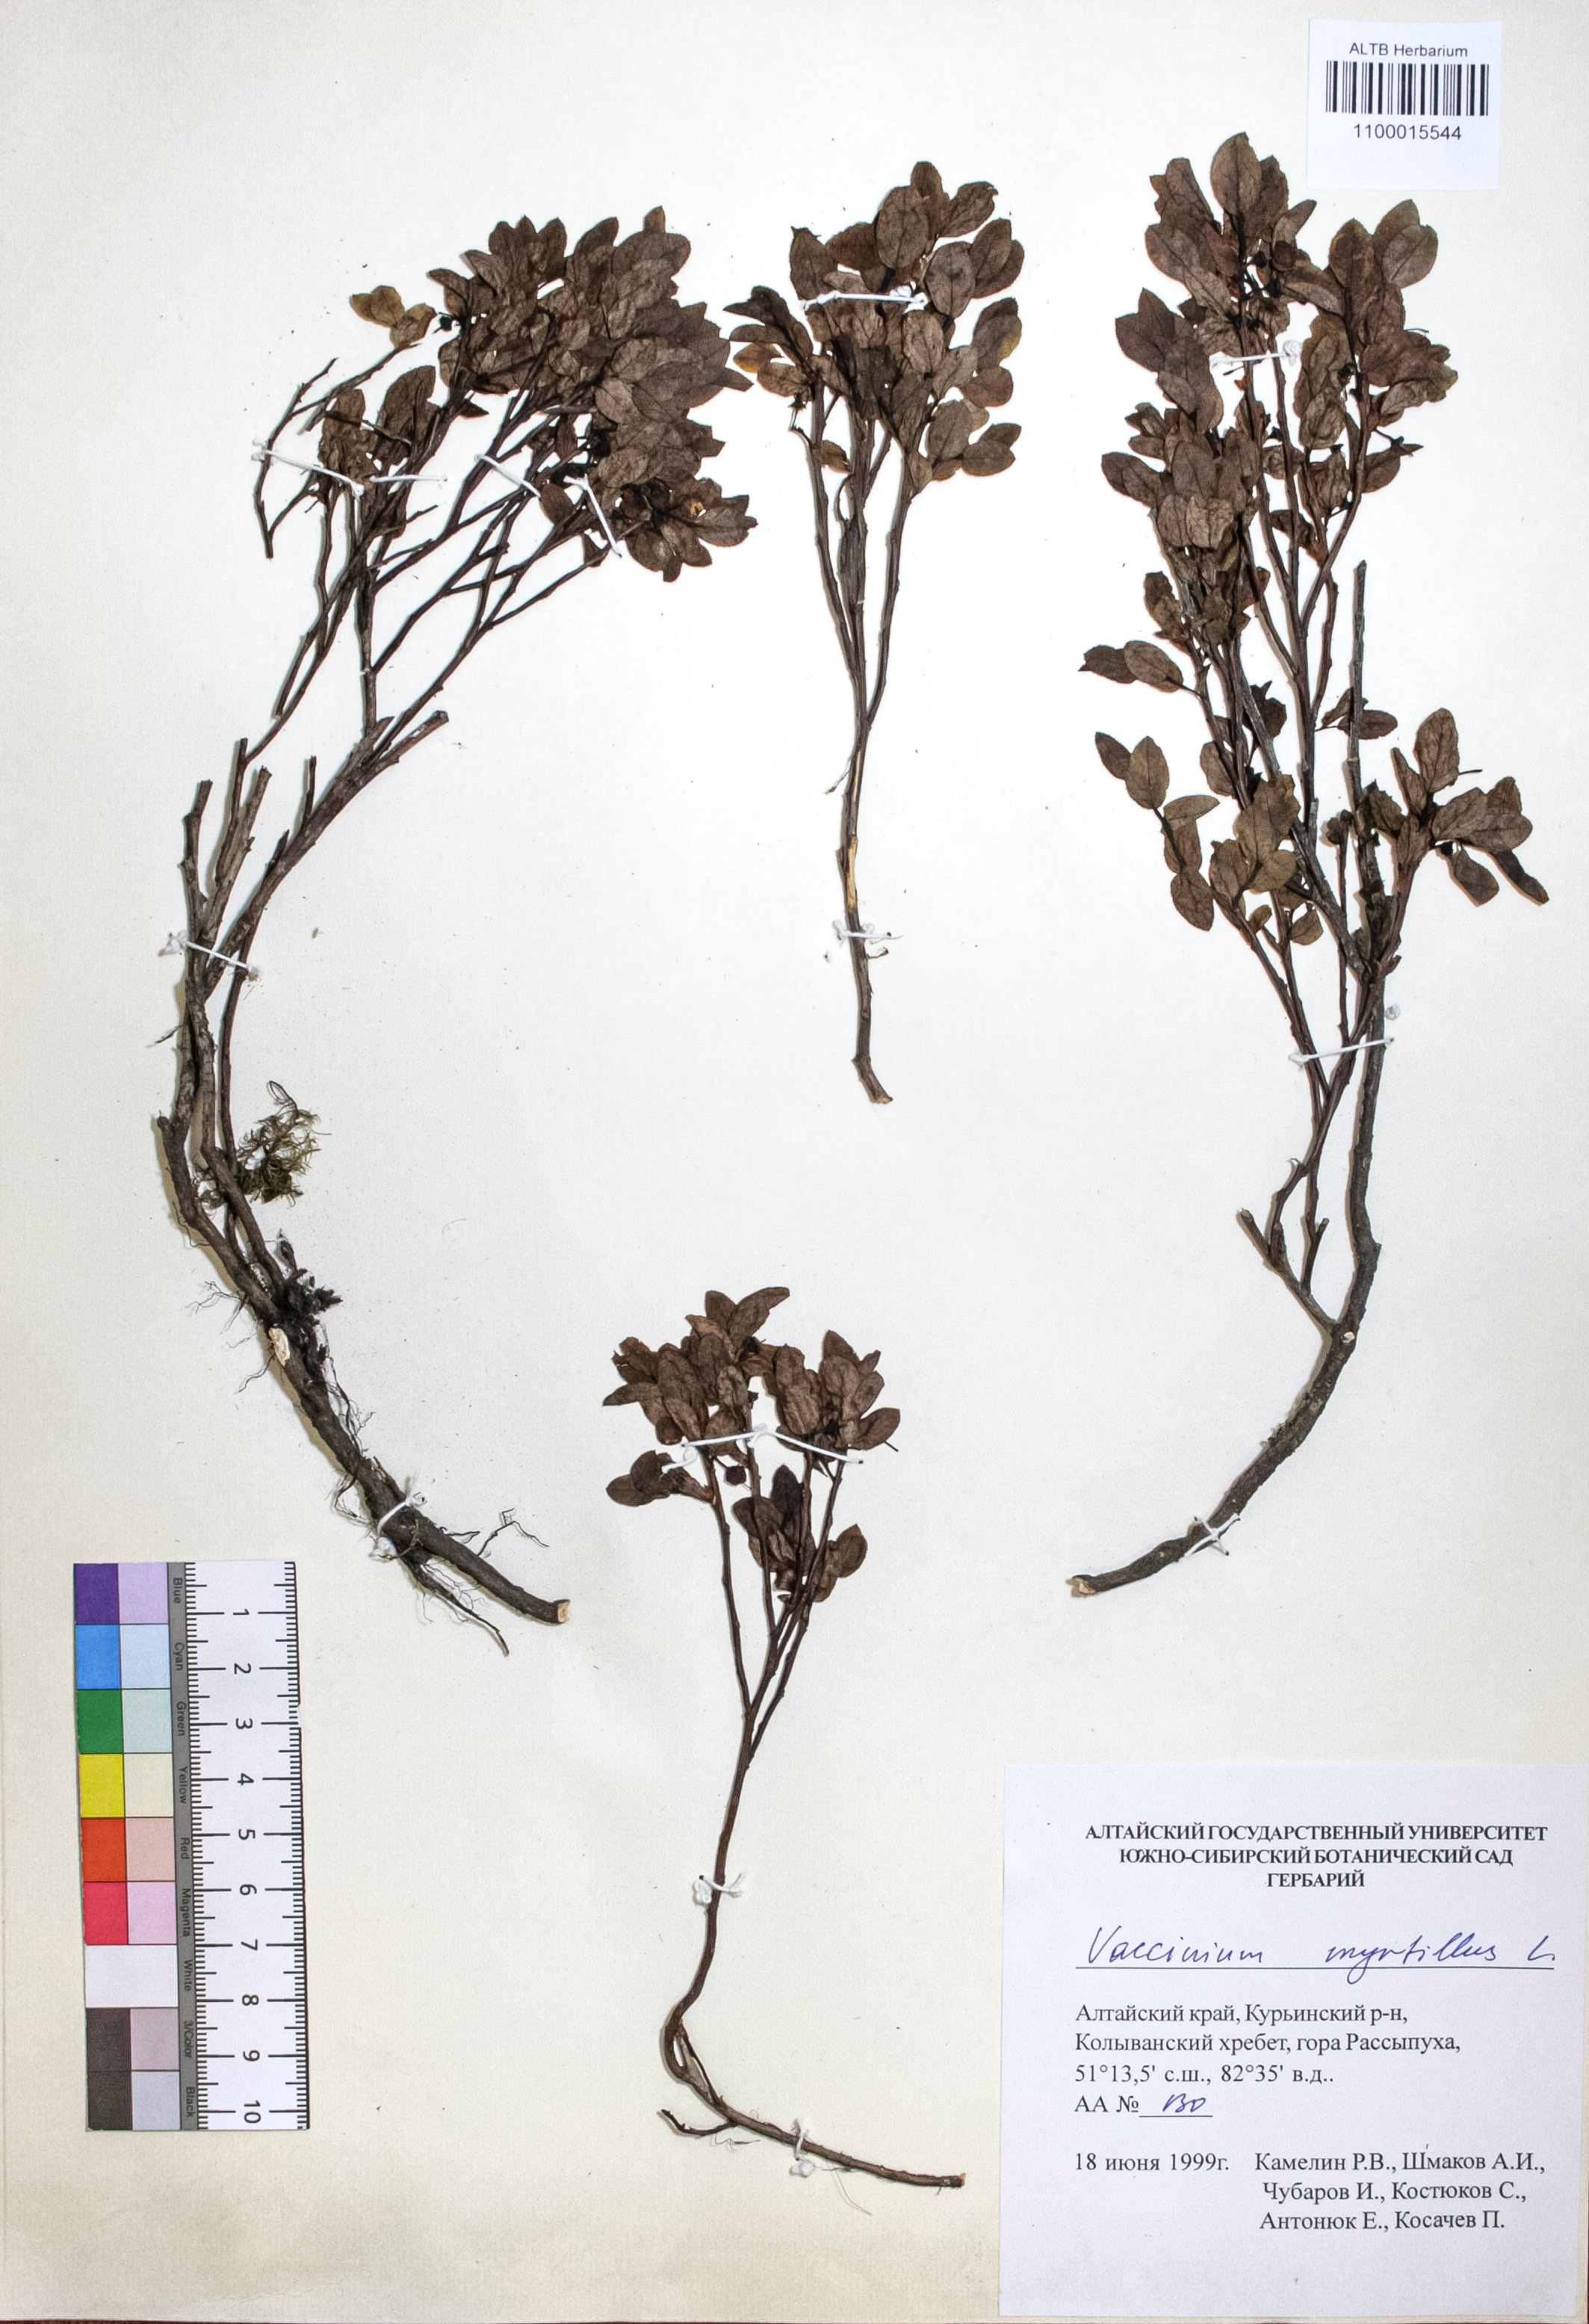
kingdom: Plantae
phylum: Tracheophyta
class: Magnoliopsida
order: Ericales
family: Ericaceae
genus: Vaccinium
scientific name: Vaccinium myrtillus
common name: Bilberry
